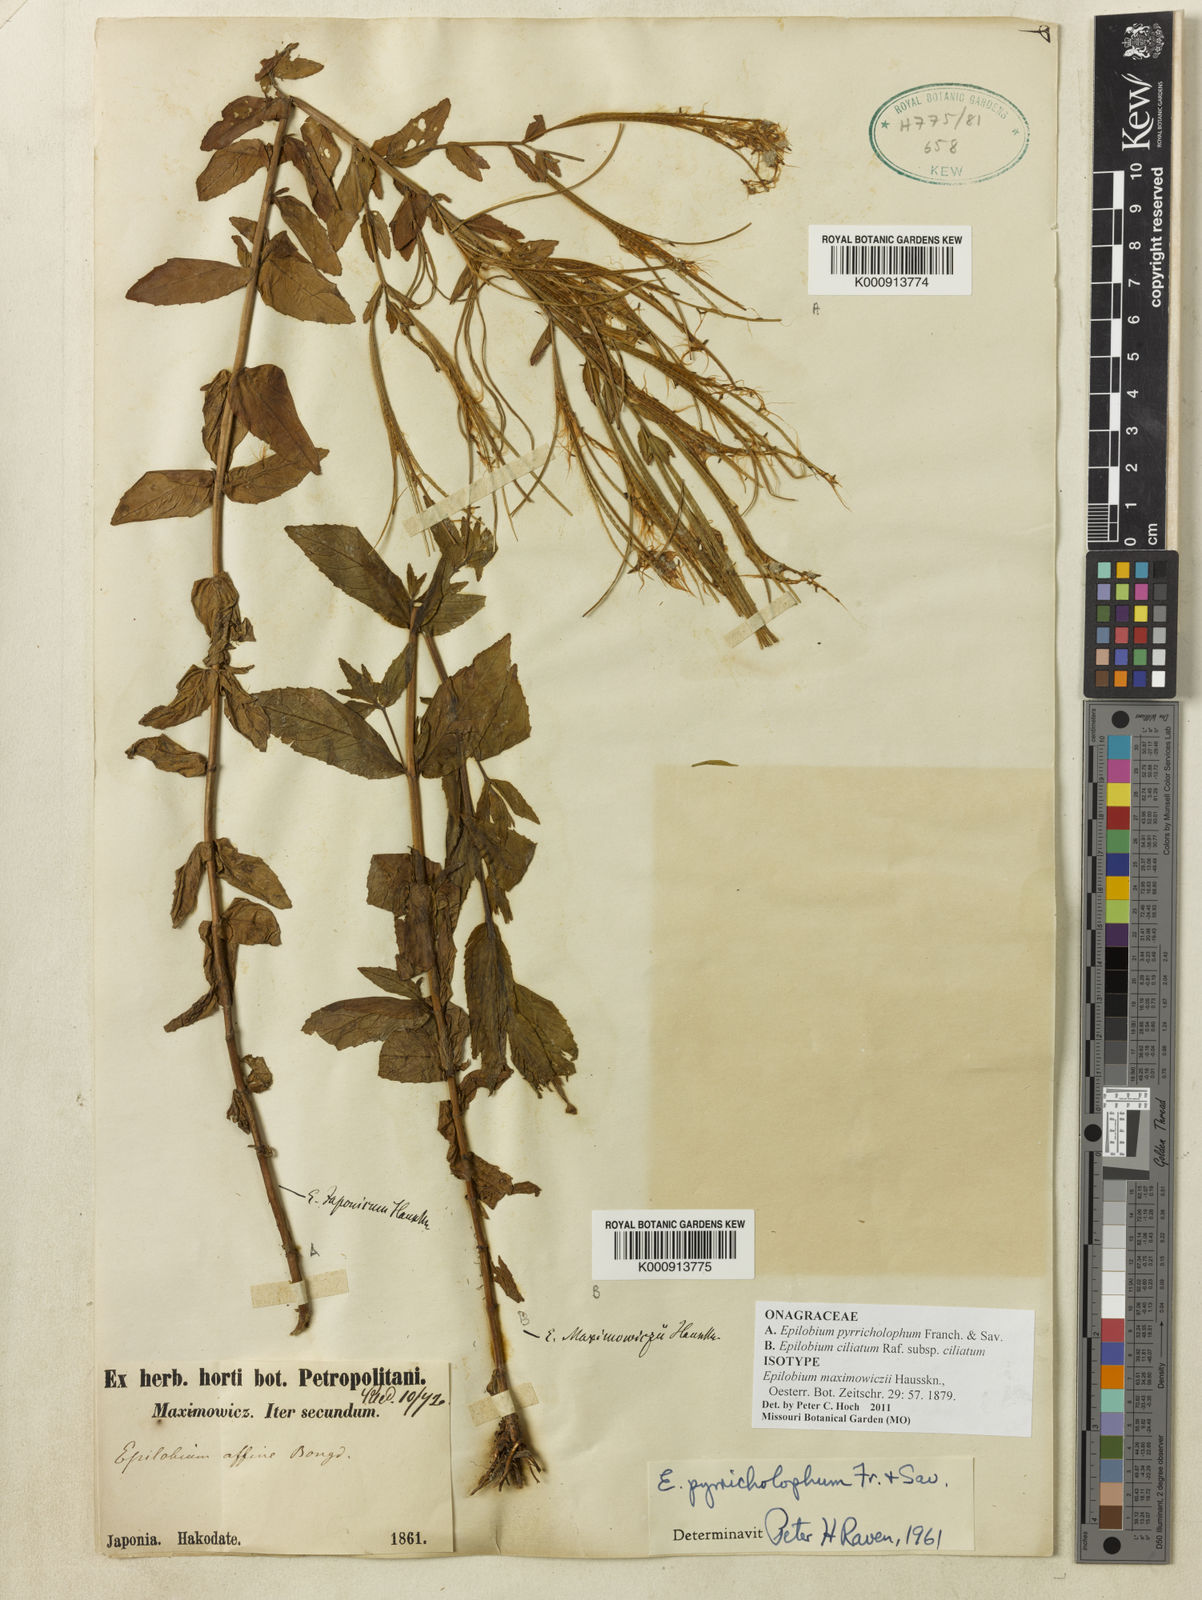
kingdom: Plantae
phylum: Tracheophyta
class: Magnoliopsida
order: Myrtales
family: Onagraceae
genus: Epilobium
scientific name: Epilobium ciliatum
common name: American willowherb
